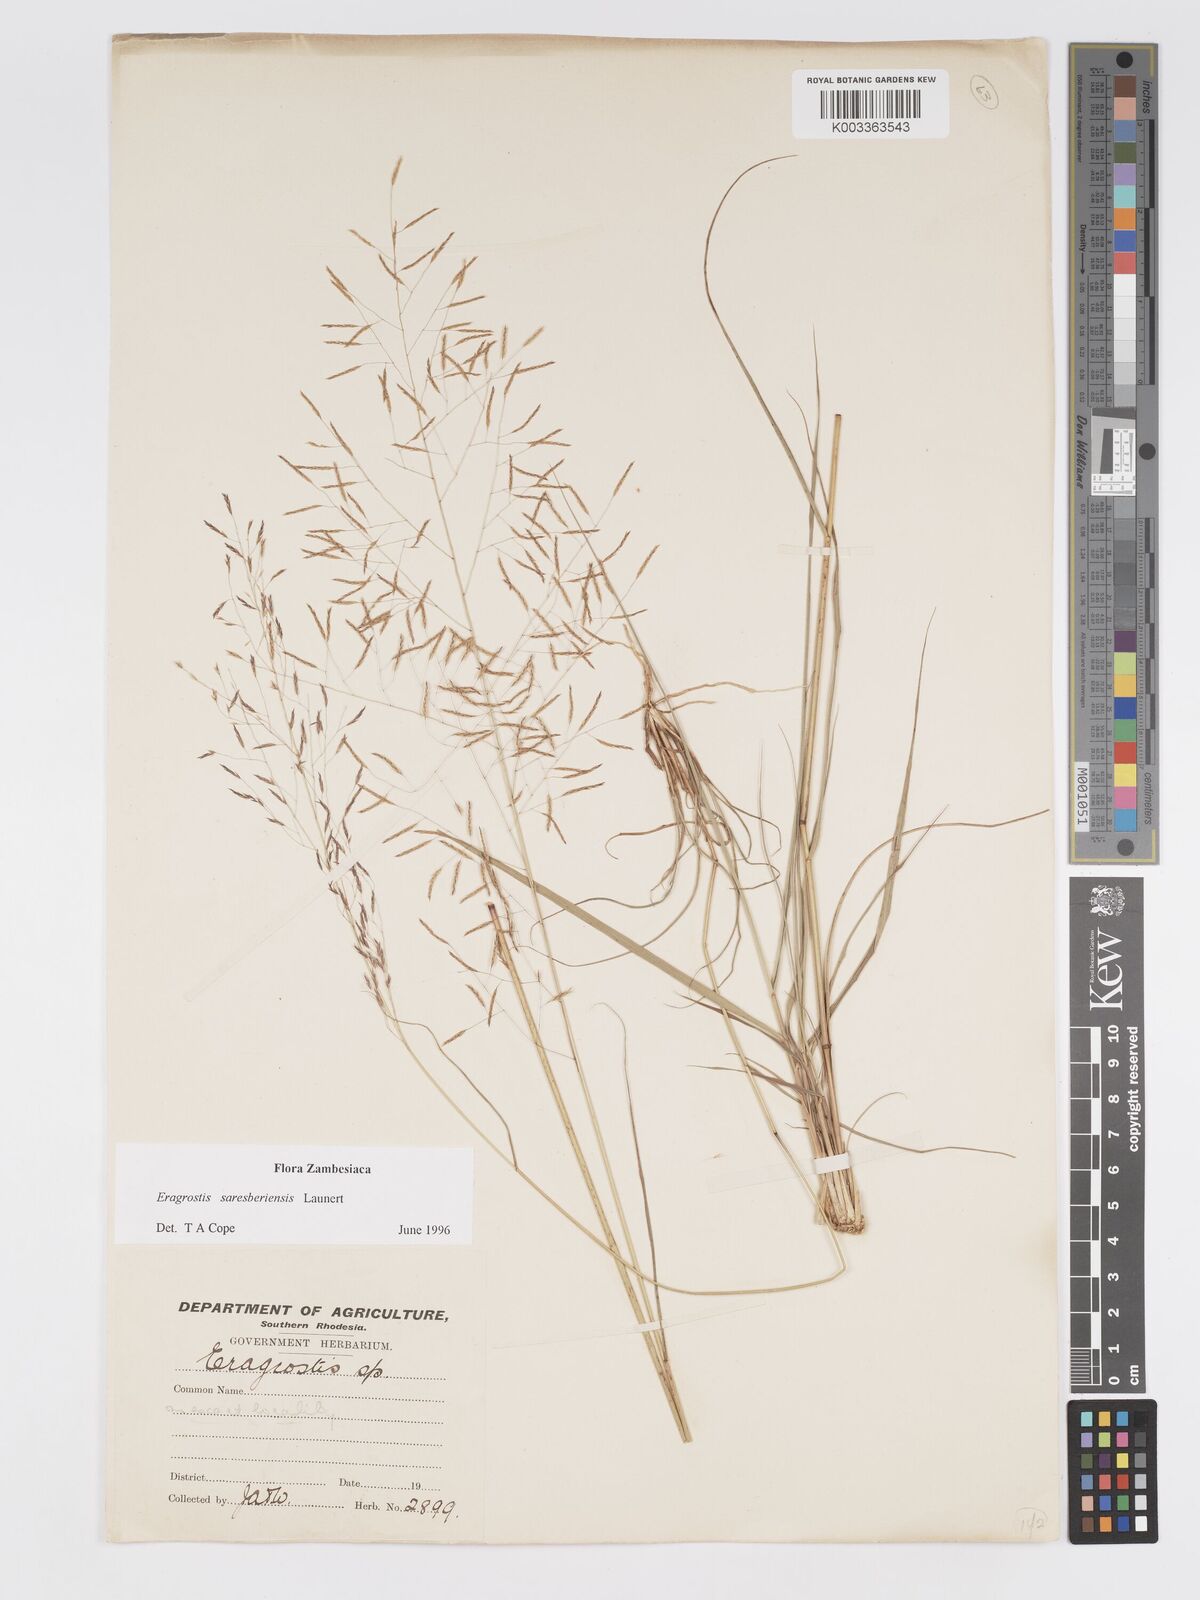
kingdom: Plantae
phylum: Tracheophyta
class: Liliopsida
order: Poales
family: Poaceae
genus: Eragrostis
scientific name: Eragrostis saresberiensis
